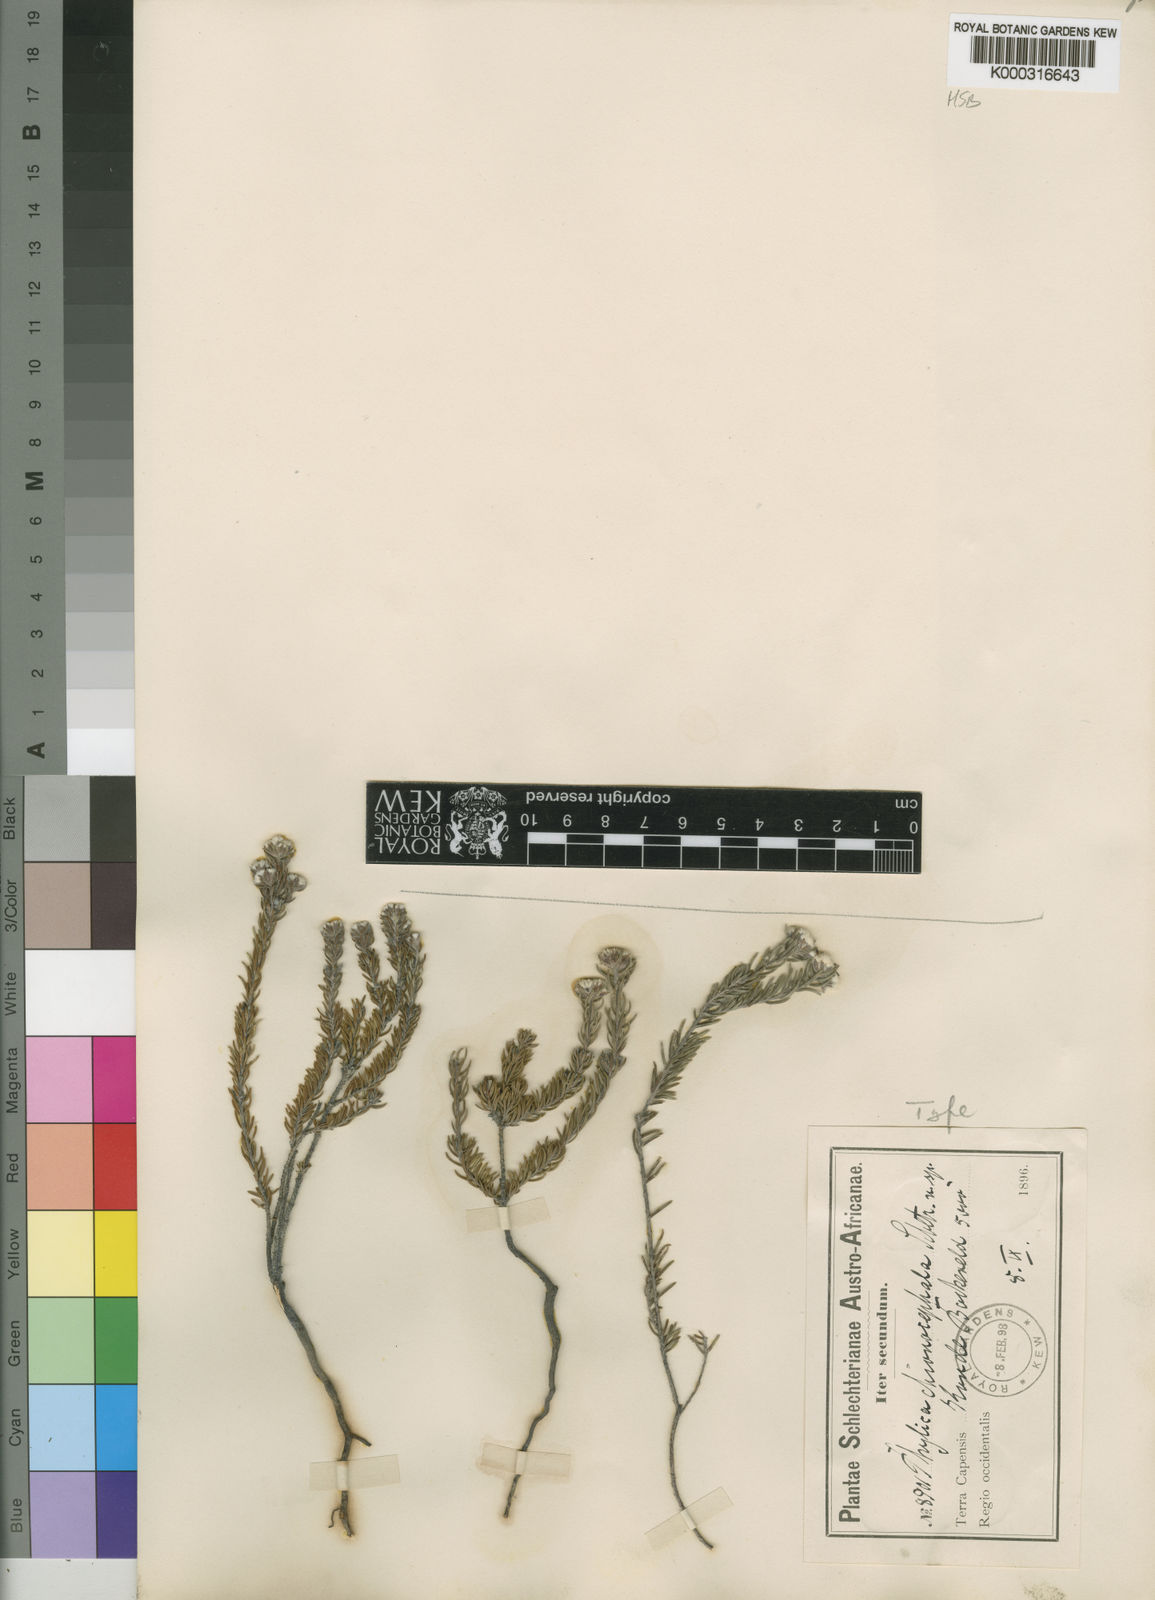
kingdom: Plantae
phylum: Tracheophyta
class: Magnoliopsida
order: Rosales
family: Rhamnaceae
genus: Phylica
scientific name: Phylica chionocephala
